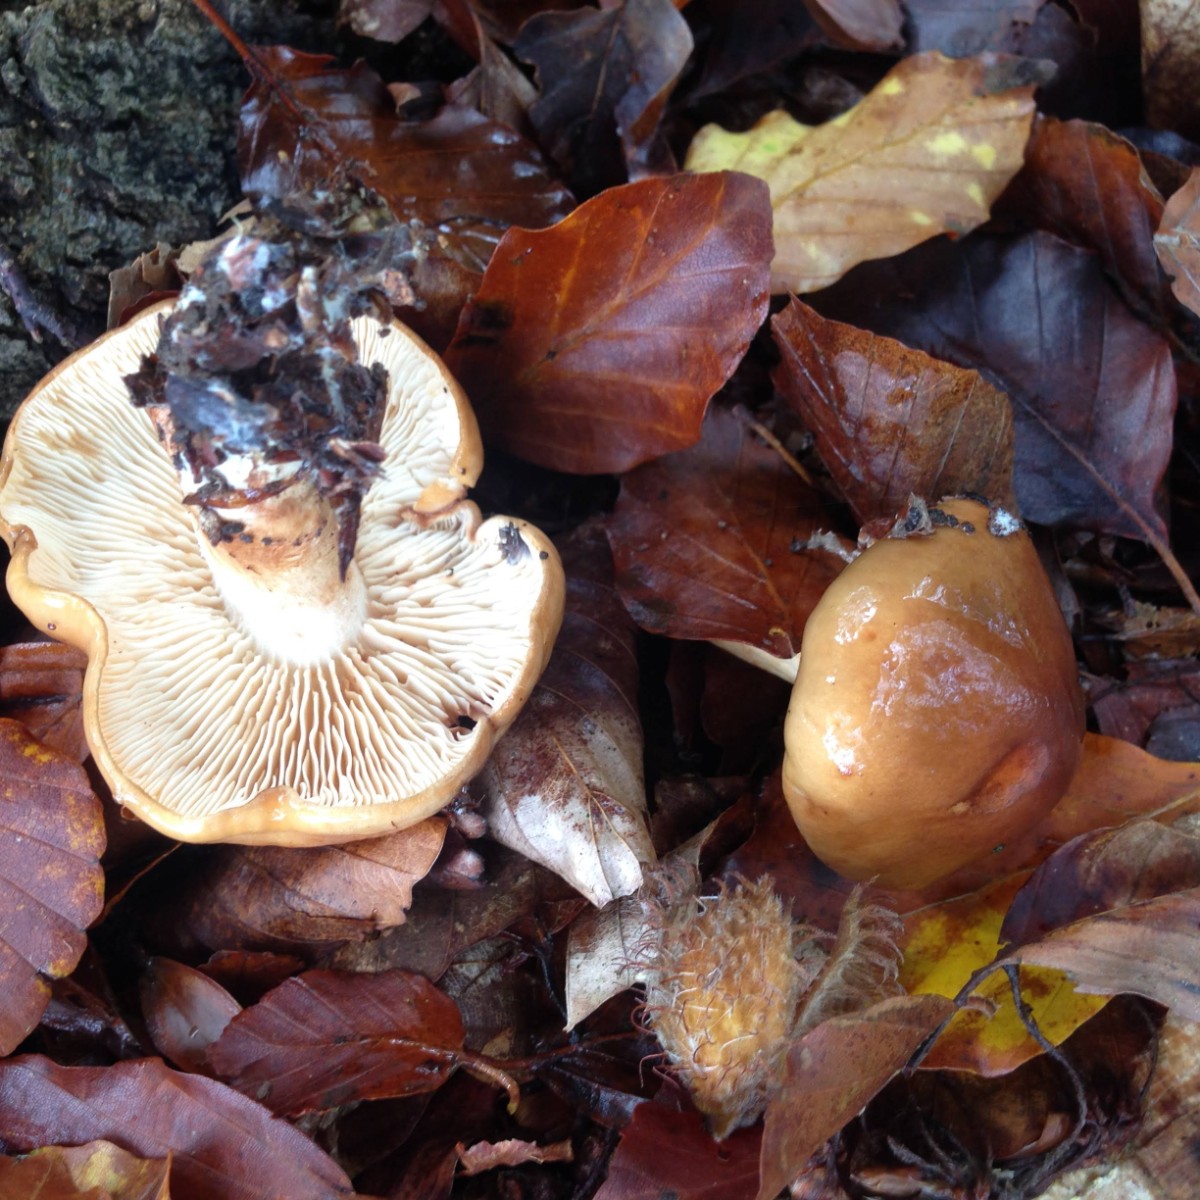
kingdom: Fungi
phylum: Basidiomycota
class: Agaricomycetes
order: Agaricales
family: Tricholomataceae
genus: Tricholoma
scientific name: Tricholoma ustale
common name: sveden ridderhat
